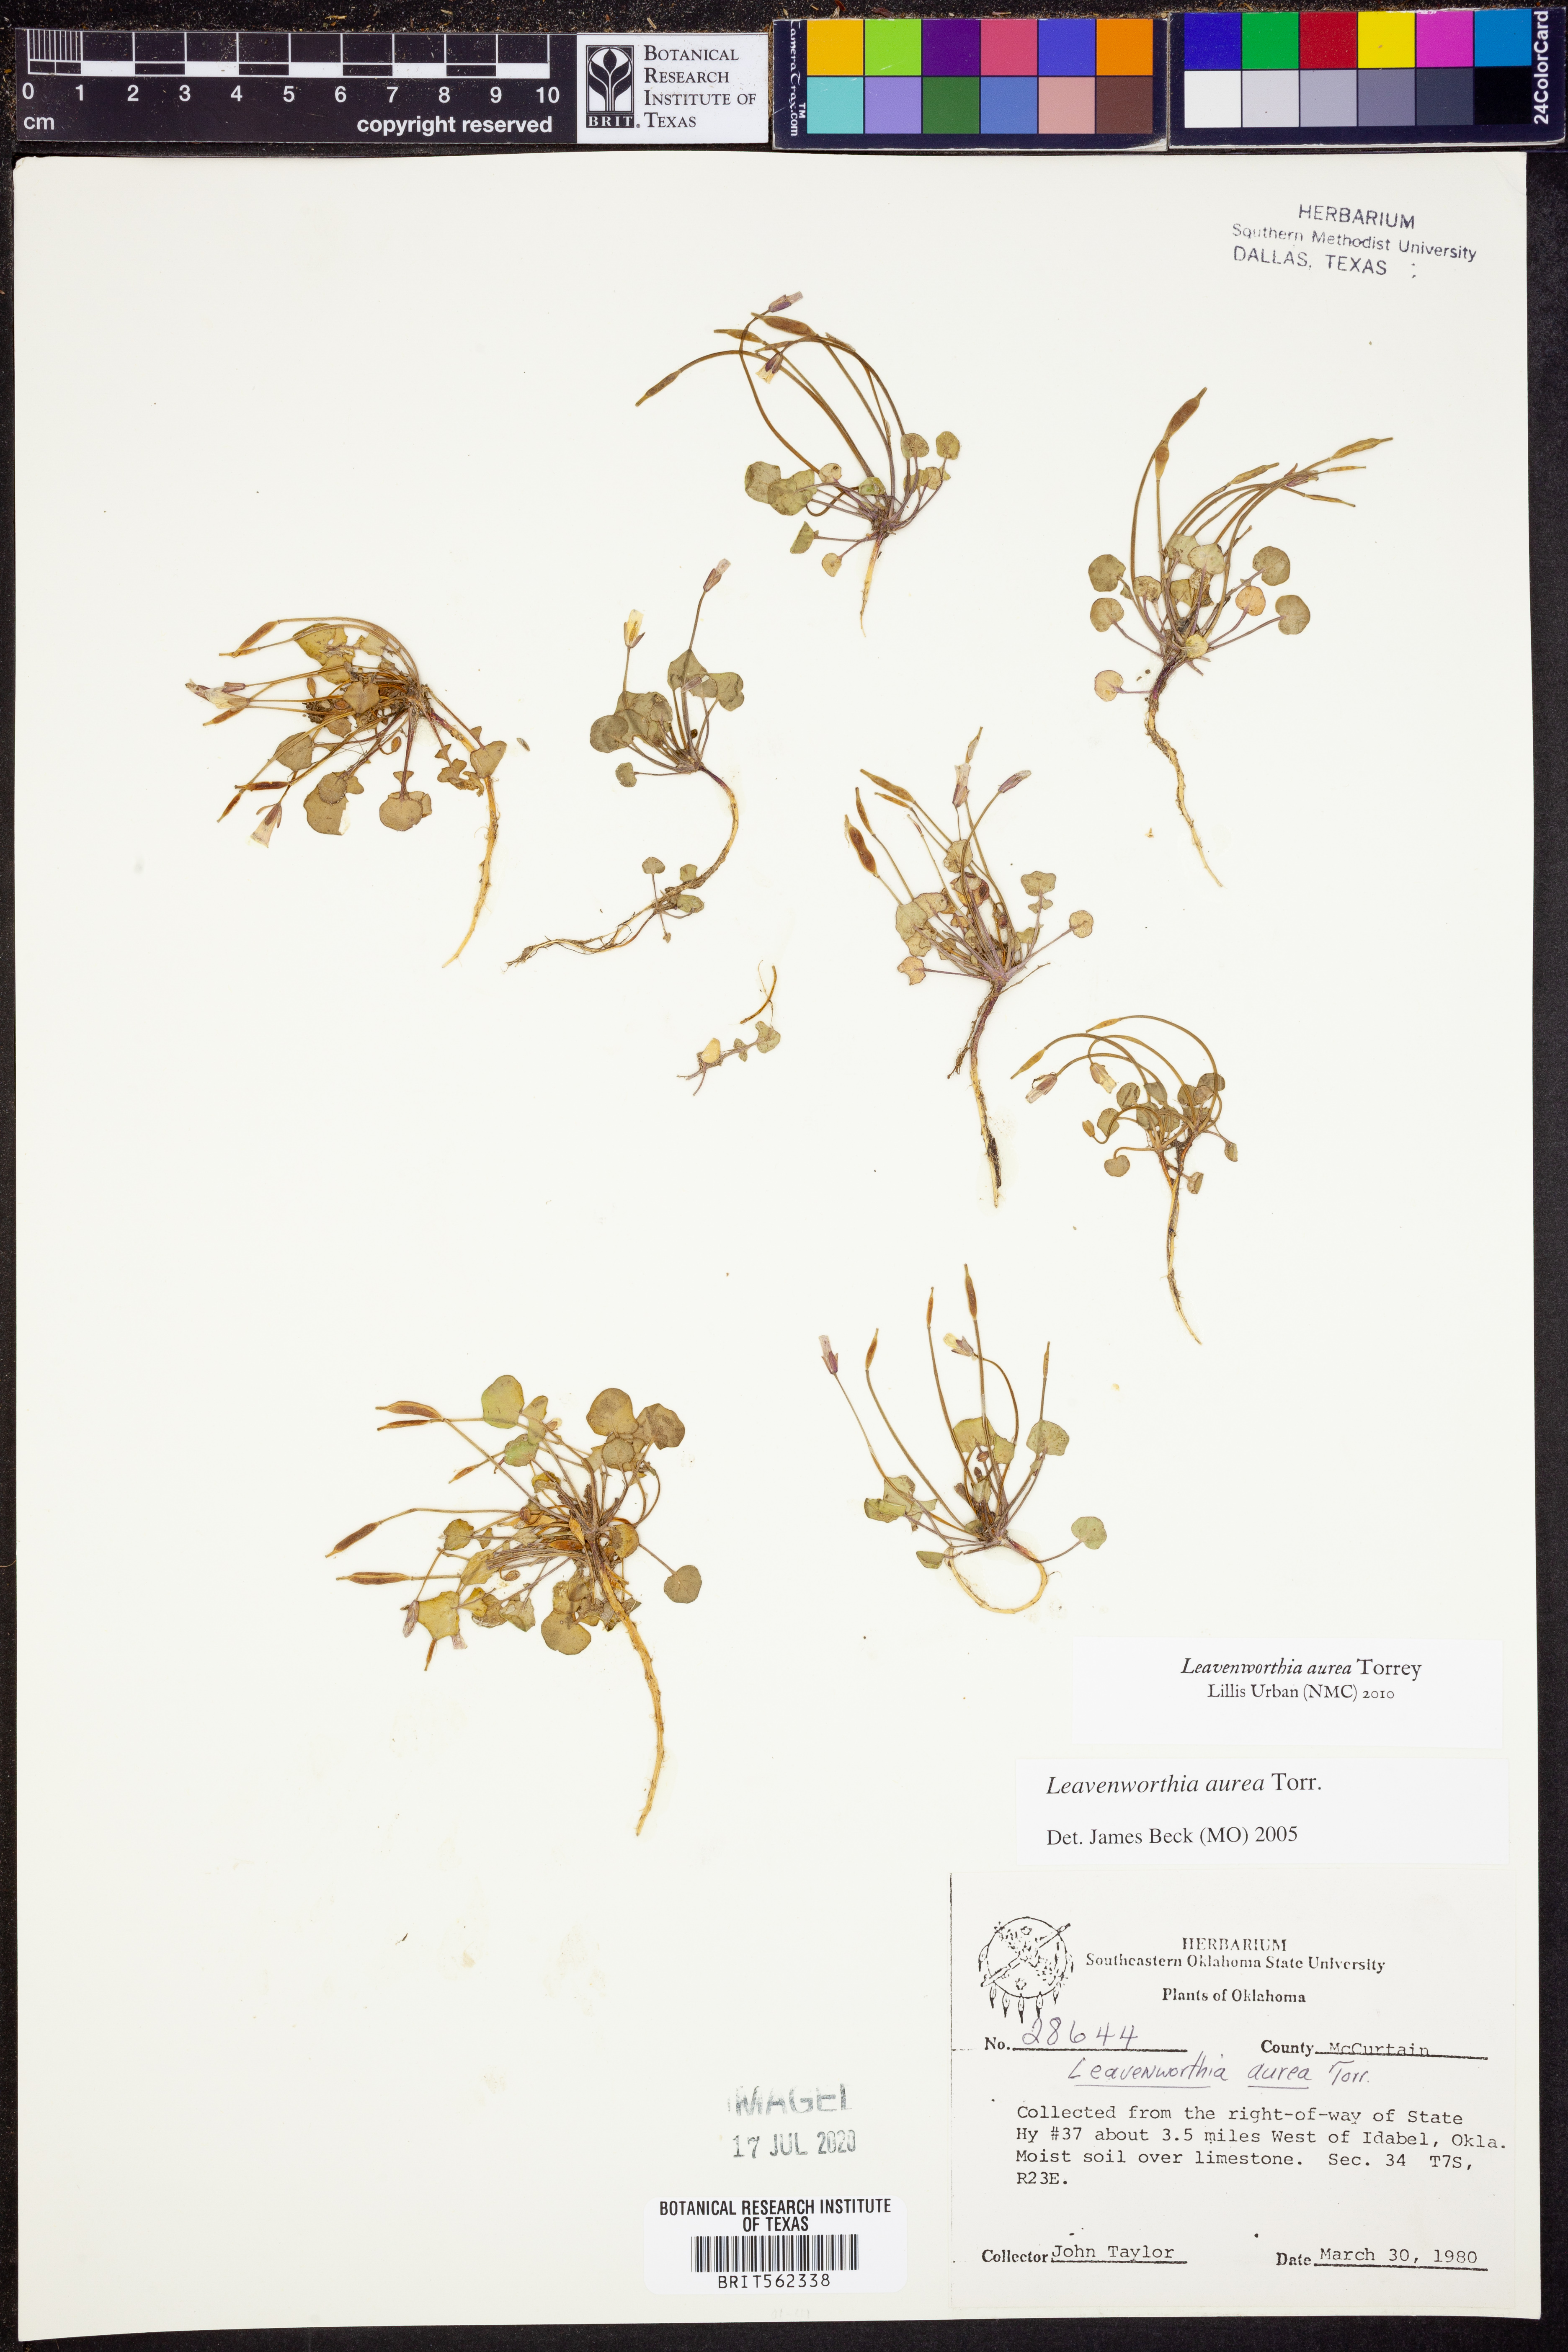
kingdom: Plantae
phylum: Tracheophyta
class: Magnoliopsida
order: Brassicales
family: Brassicaceae
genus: Leavenworthia
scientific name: Leavenworthia aurea
